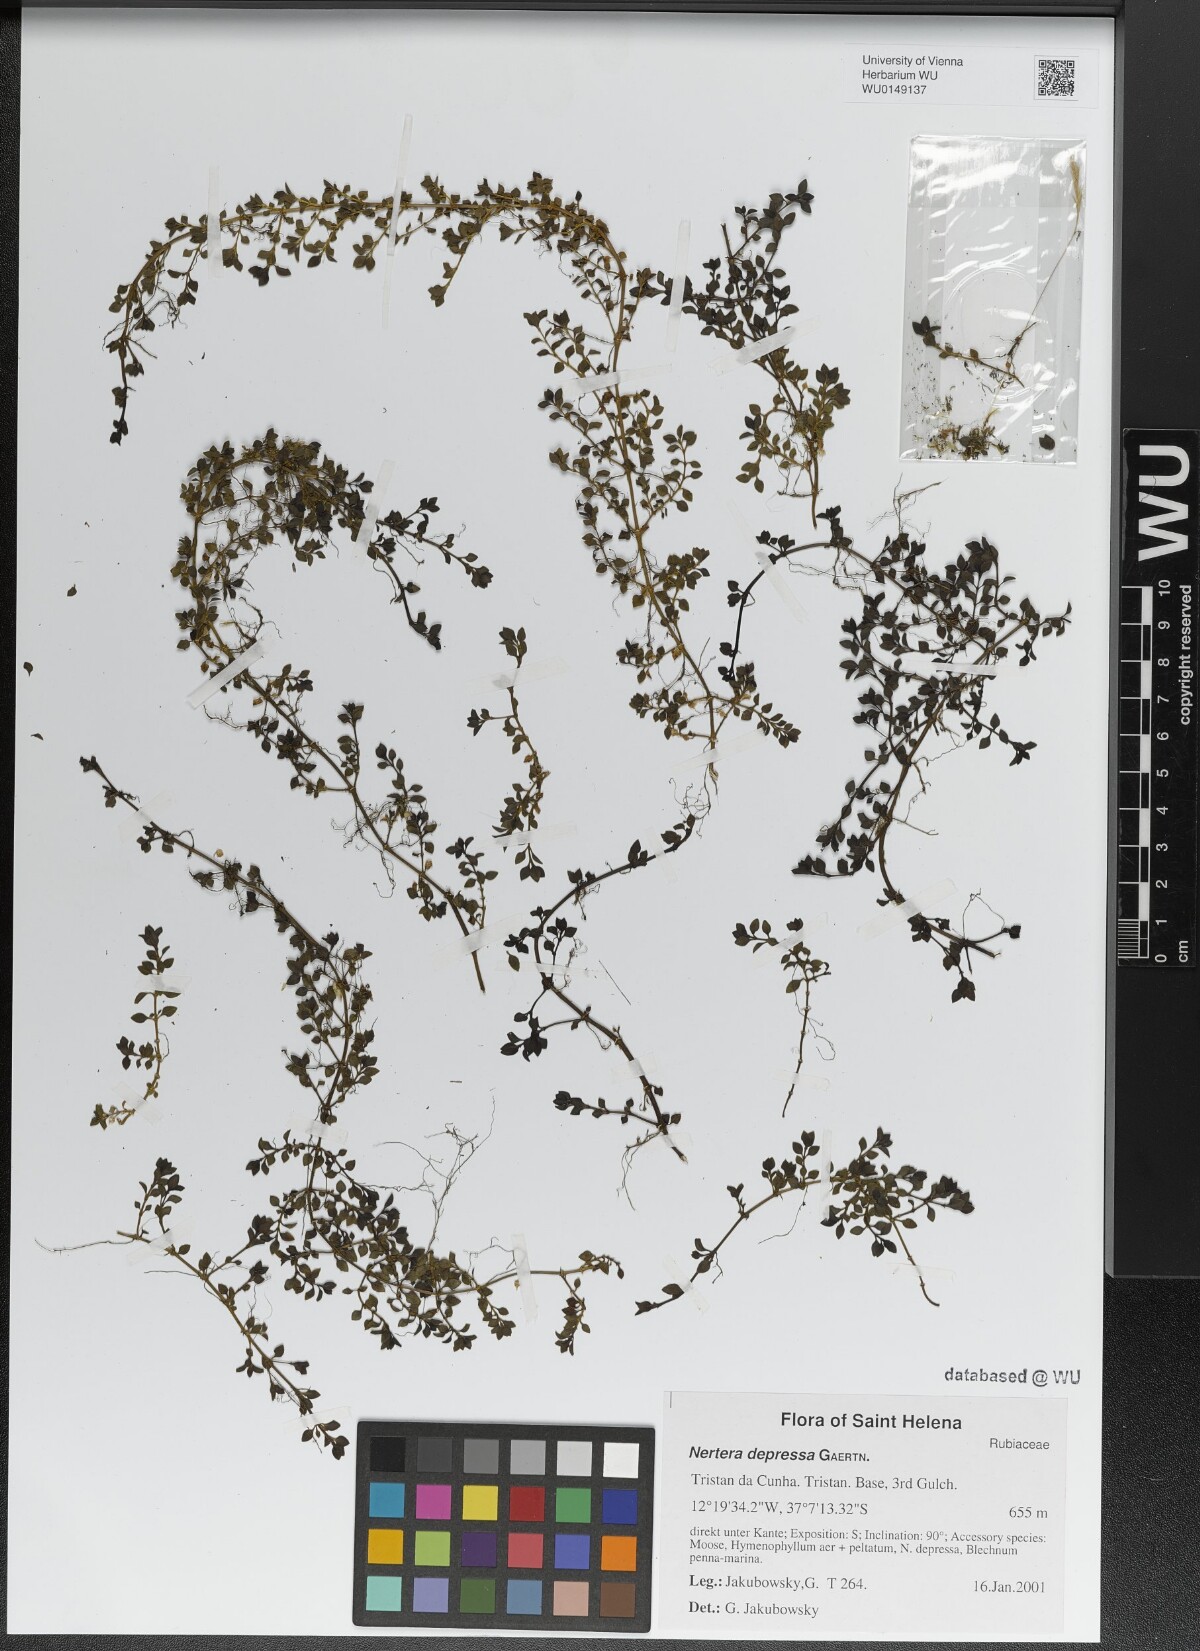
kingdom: Plantae
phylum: Tracheophyta
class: Magnoliopsida
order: Gentianales
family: Rubiaceae
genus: Nertera
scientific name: Nertera granadensis
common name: Beadplant
